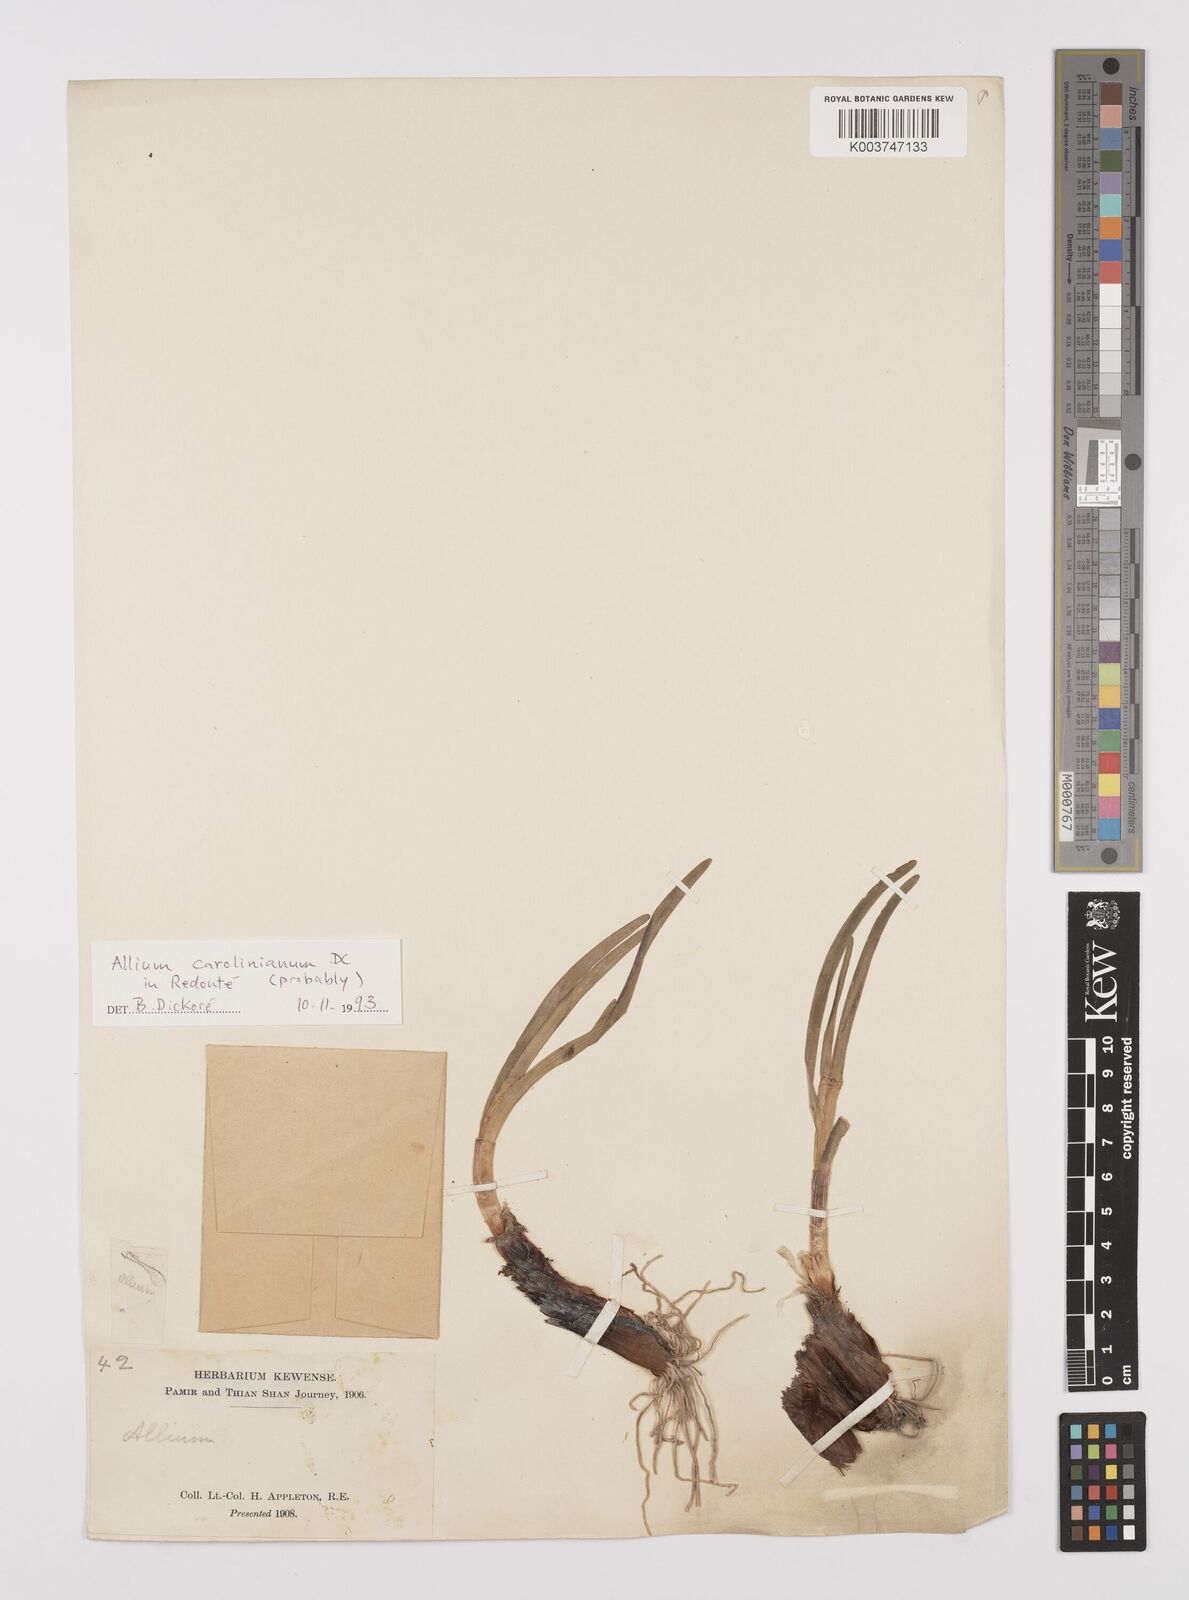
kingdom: Plantae
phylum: Tracheophyta
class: Liliopsida
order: Asparagales
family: Amaryllidaceae
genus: Allium
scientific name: Allium carolinianum
